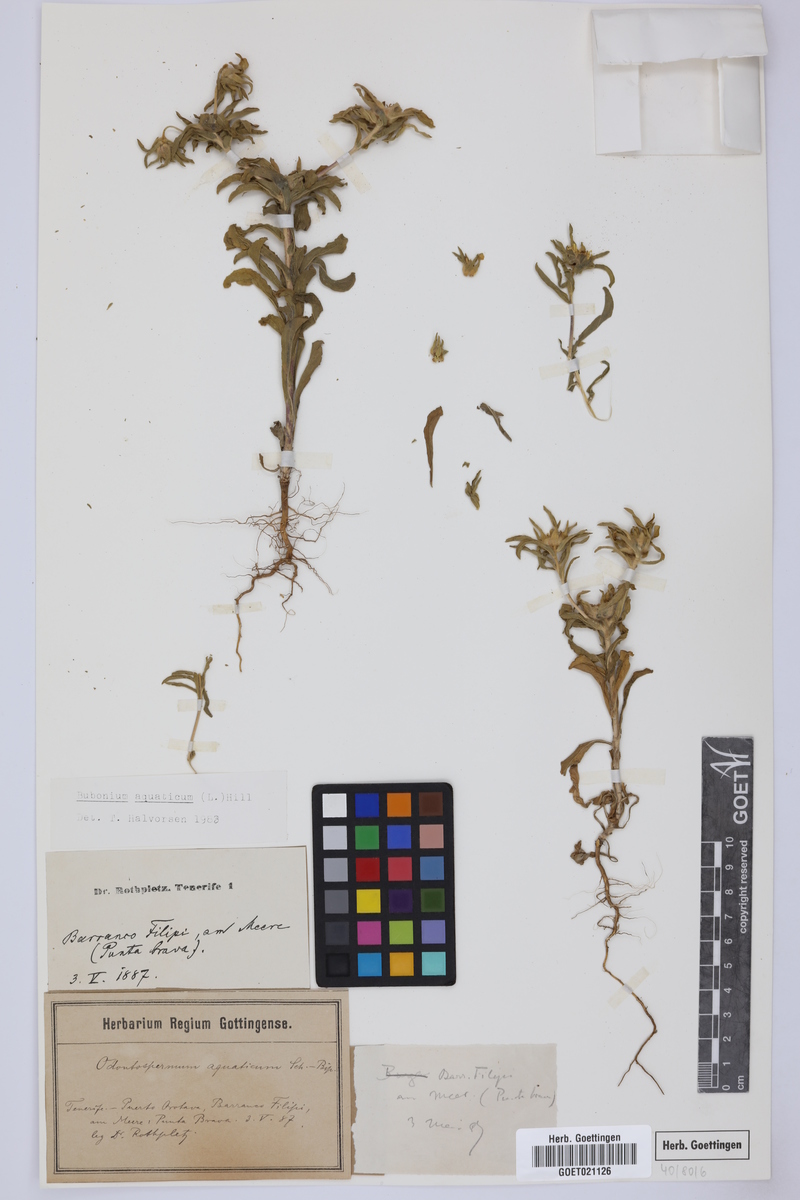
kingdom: Plantae
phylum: Tracheophyta
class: Magnoliopsida
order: Asterales
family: Asteraceae
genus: Asteriscus
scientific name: Asteriscus aquaticus
